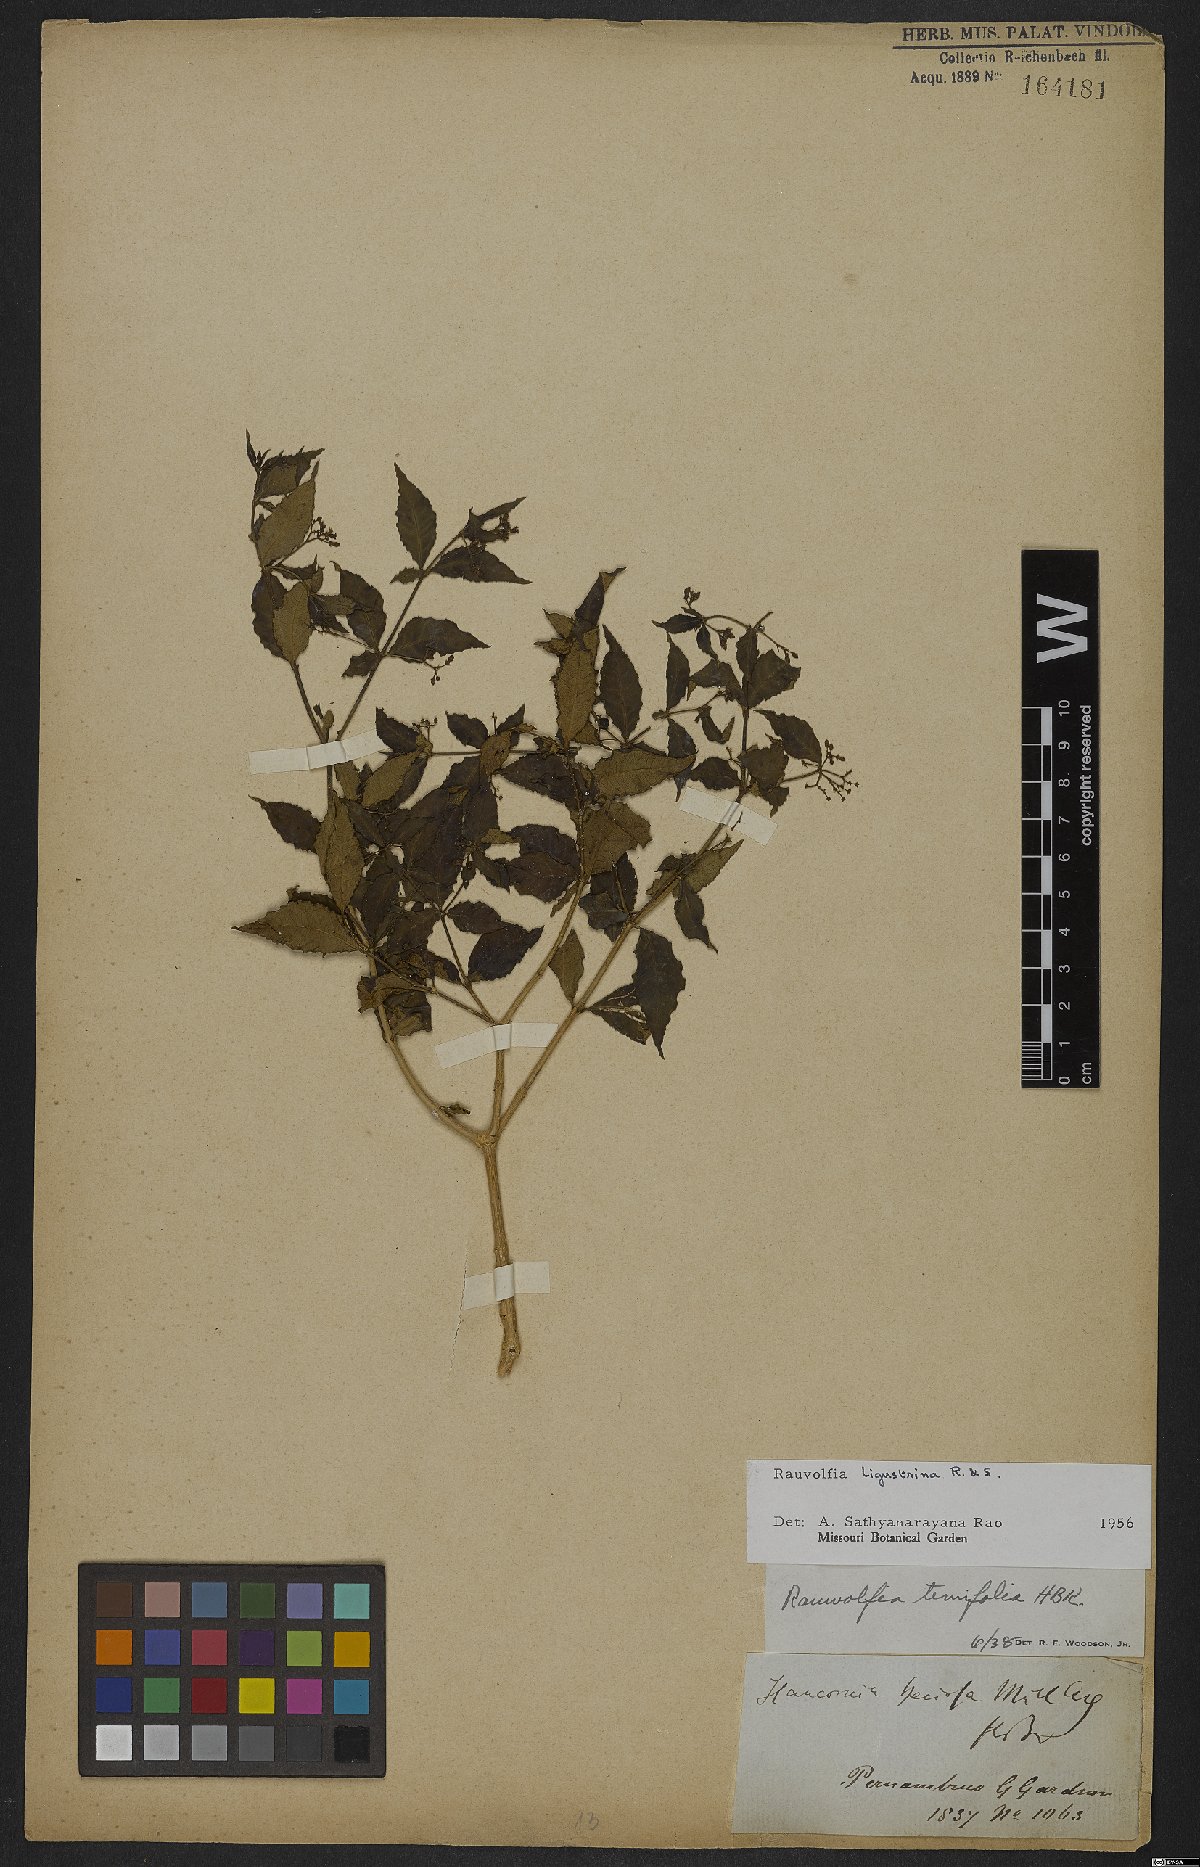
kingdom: Plantae
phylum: Tracheophyta
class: Magnoliopsida
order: Gentianales
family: Apocynaceae
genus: Rauvolfia
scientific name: Rauvolfia ligustrina
